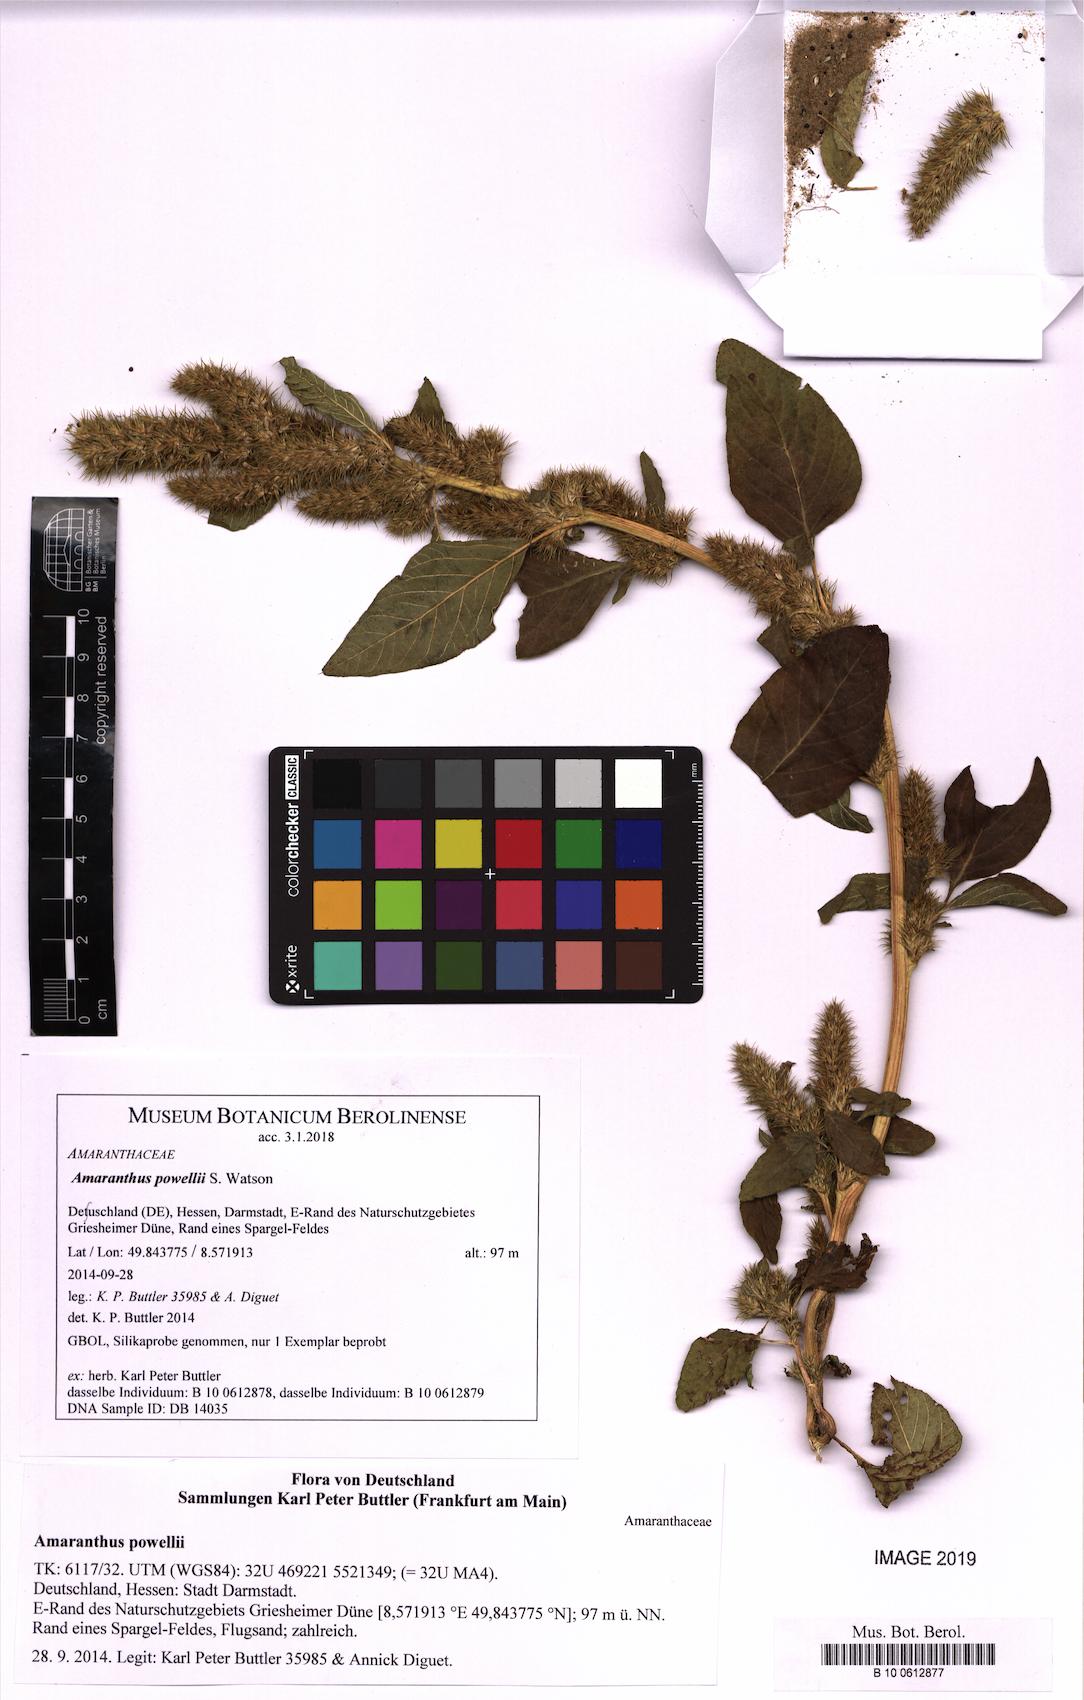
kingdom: Plantae
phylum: Tracheophyta
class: Magnoliopsida
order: Caryophyllales
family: Amaranthaceae
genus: Amaranthus
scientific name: Amaranthus powellii
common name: Powell's amaranth
